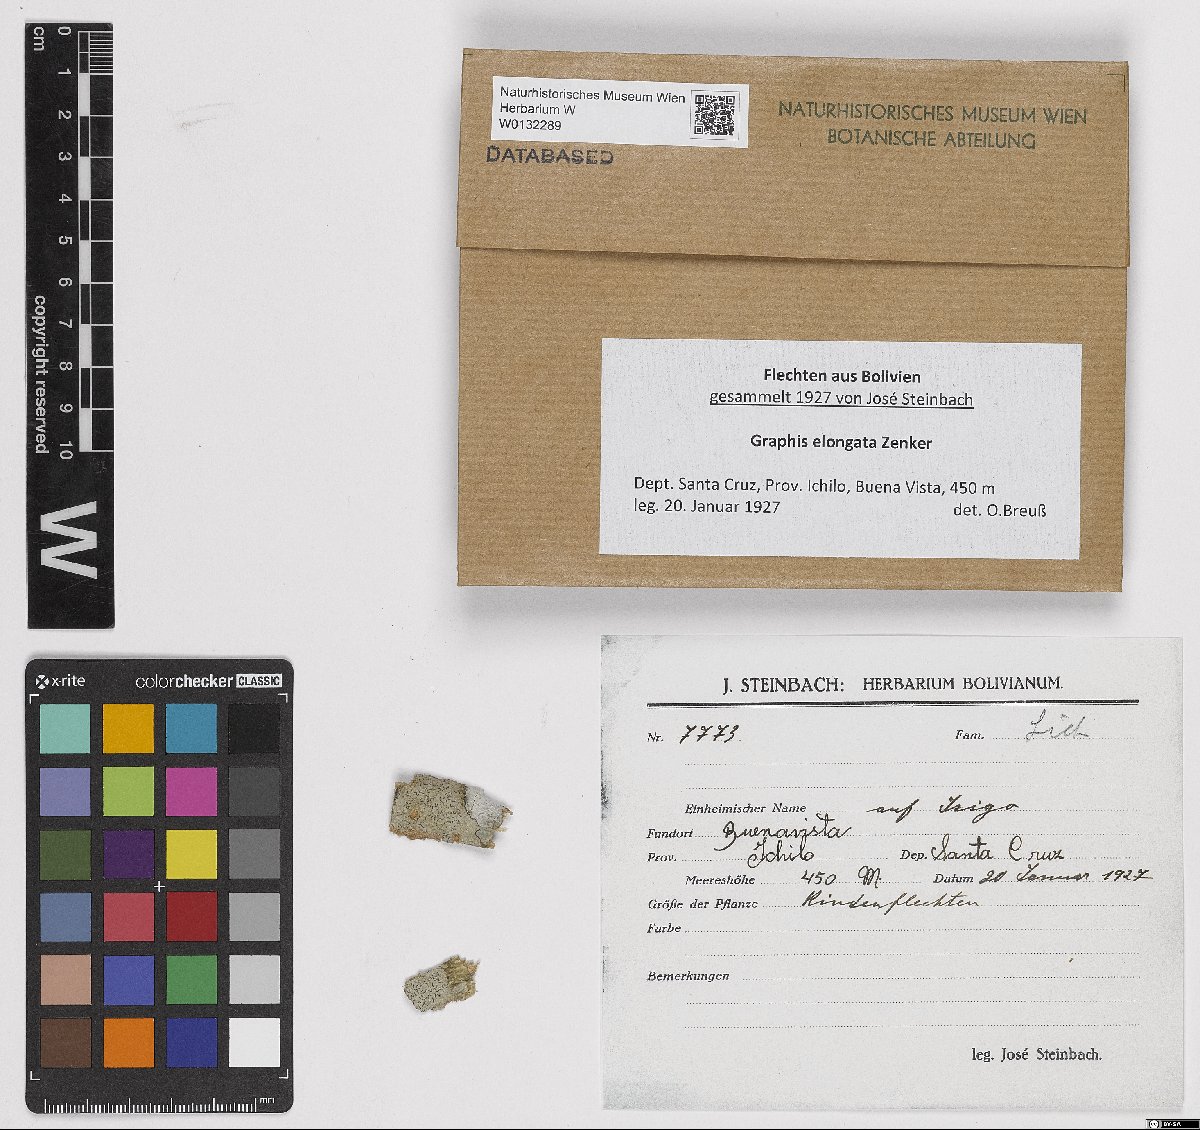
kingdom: Fungi
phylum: Ascomycota
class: Lecanoromycetes
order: Ostropales
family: Graphidaceae
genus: Graphis
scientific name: Graphis
